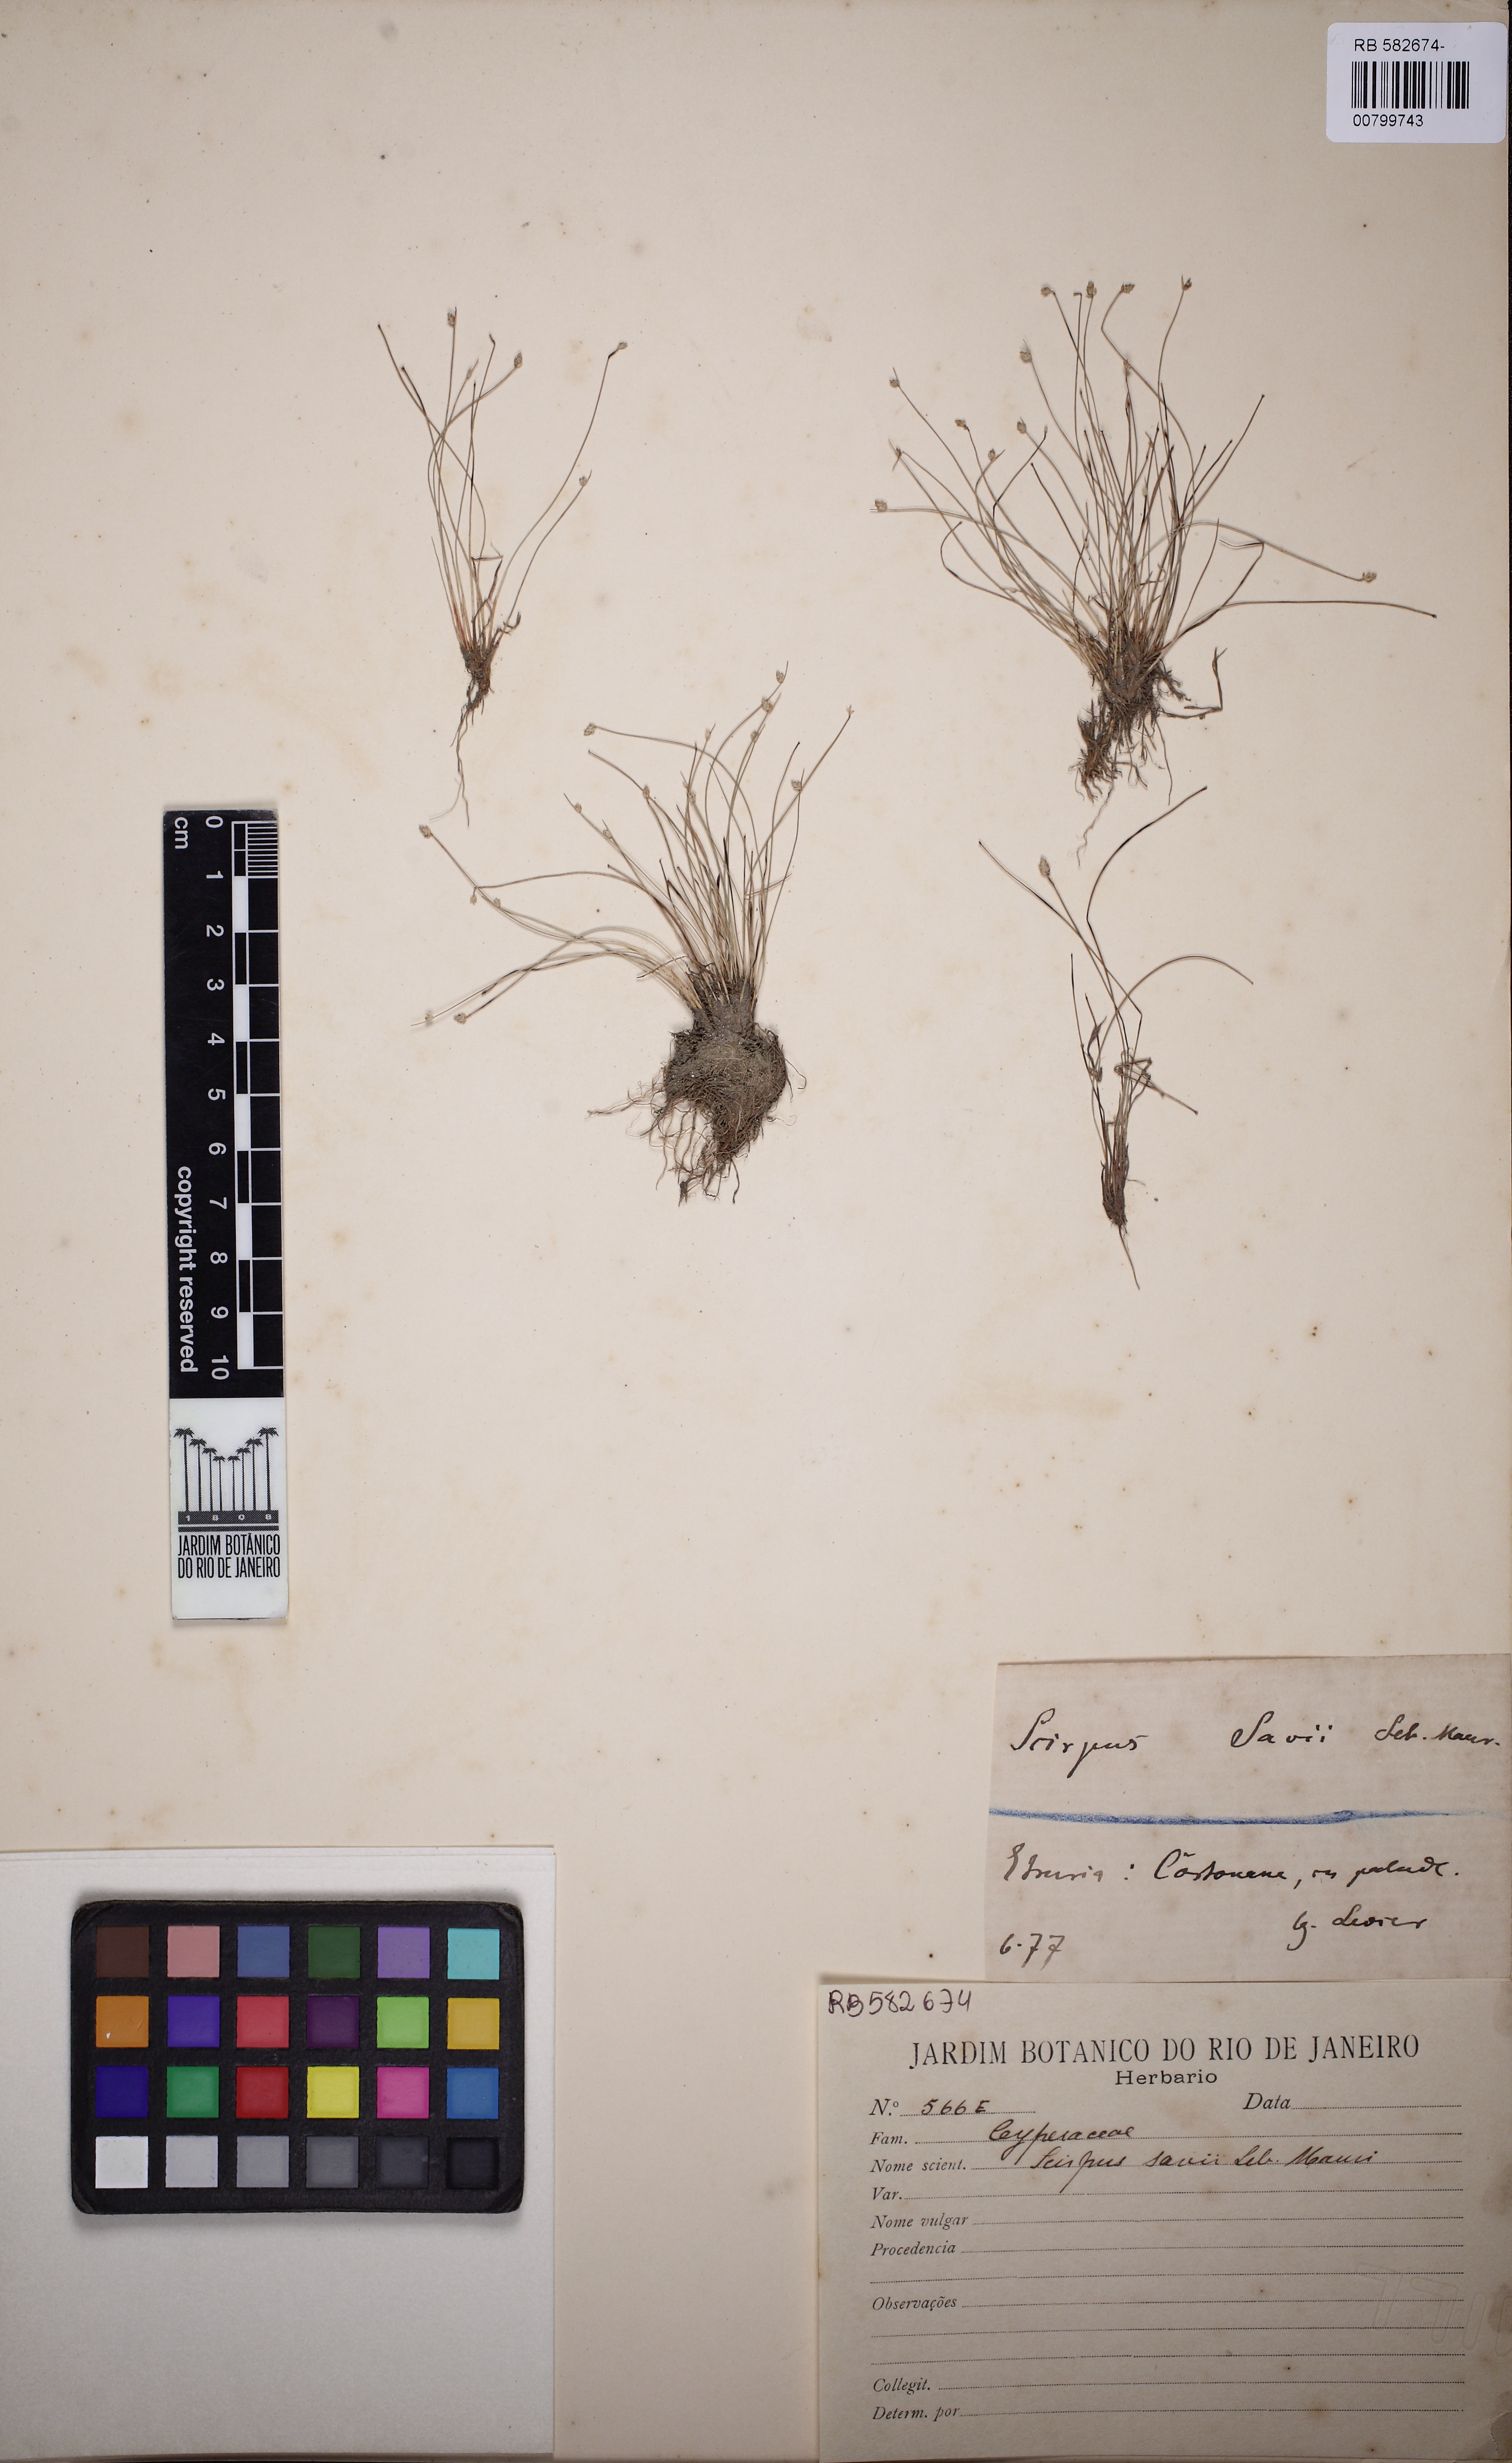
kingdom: Plantae
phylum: Tracheophyta
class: Liliopsida
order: Poales
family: Cyperaceae
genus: Isolepis
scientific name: Isolepis cernua
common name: Slender club-rush
